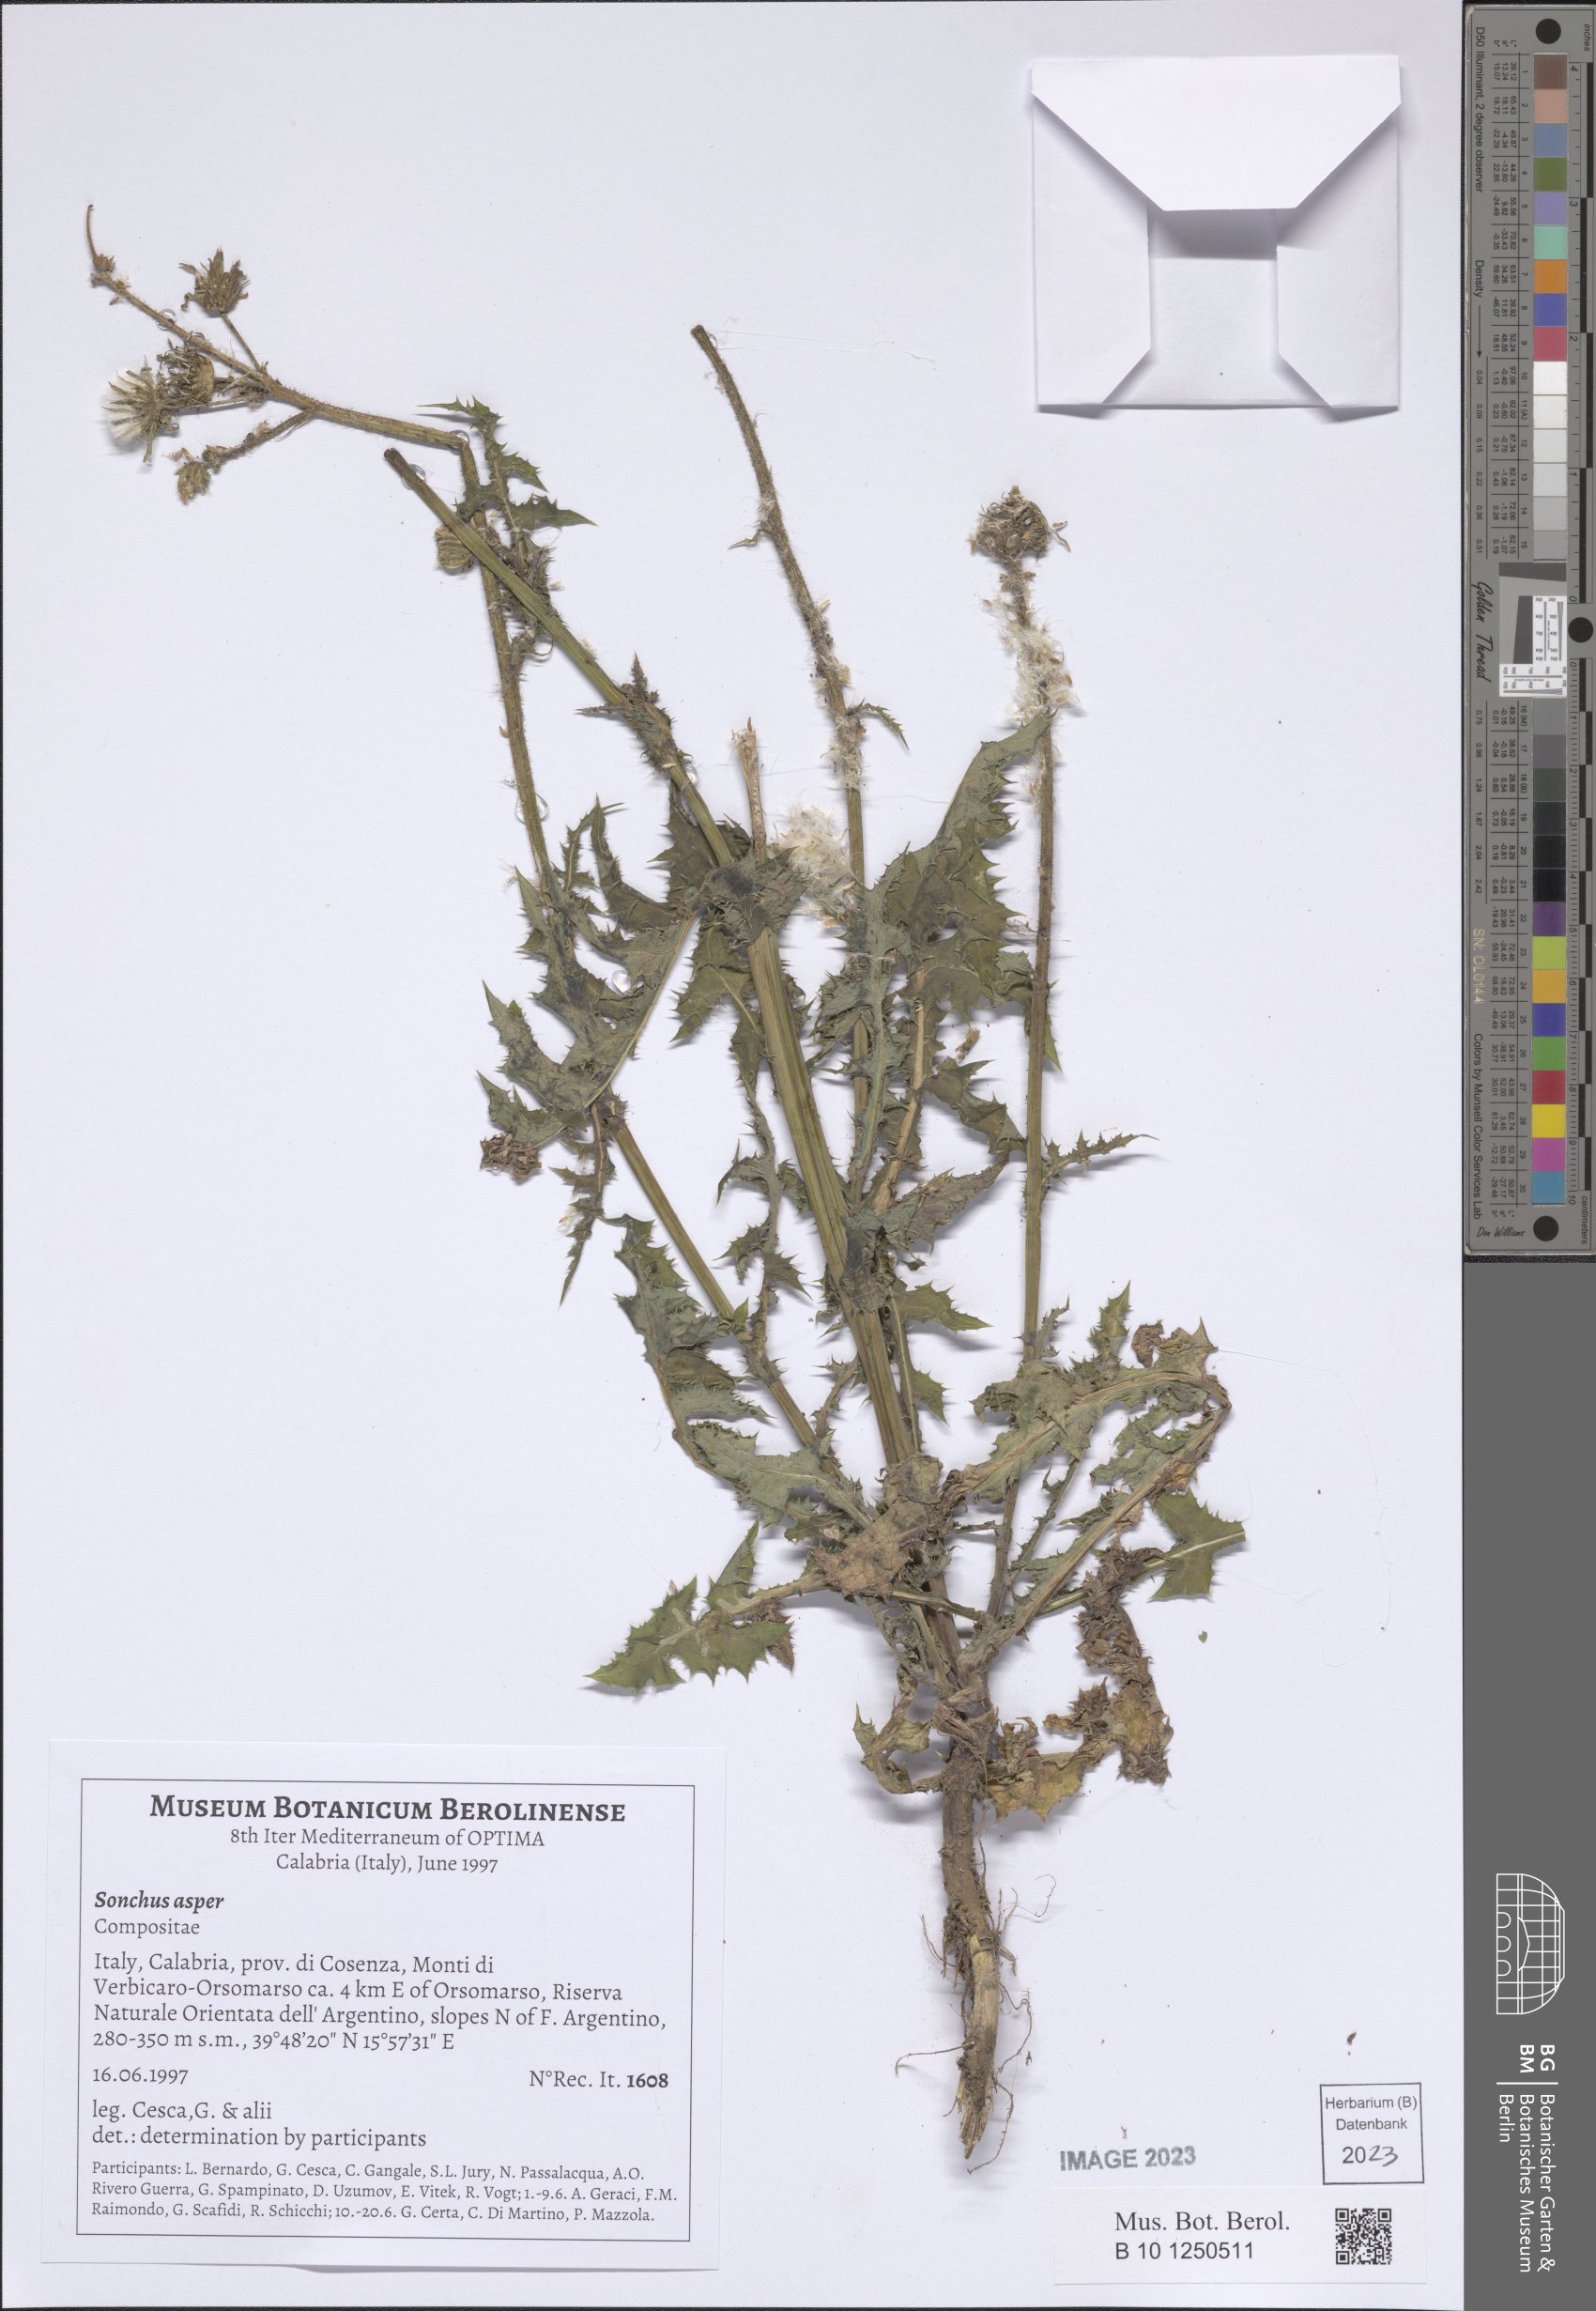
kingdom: Plantae
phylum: Tracheophyta
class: Magnoliopsida
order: Asterales
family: Asteraceae
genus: Sonchus
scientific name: Sonchus asper
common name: Prickly sow-thistle
